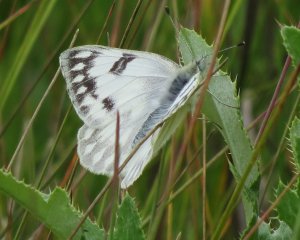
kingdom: Animalia
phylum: Arthropoda
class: Insecta
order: Lepidoptera
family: Pieridae
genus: Pontia
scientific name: Pontia protodice
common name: Checkered White
